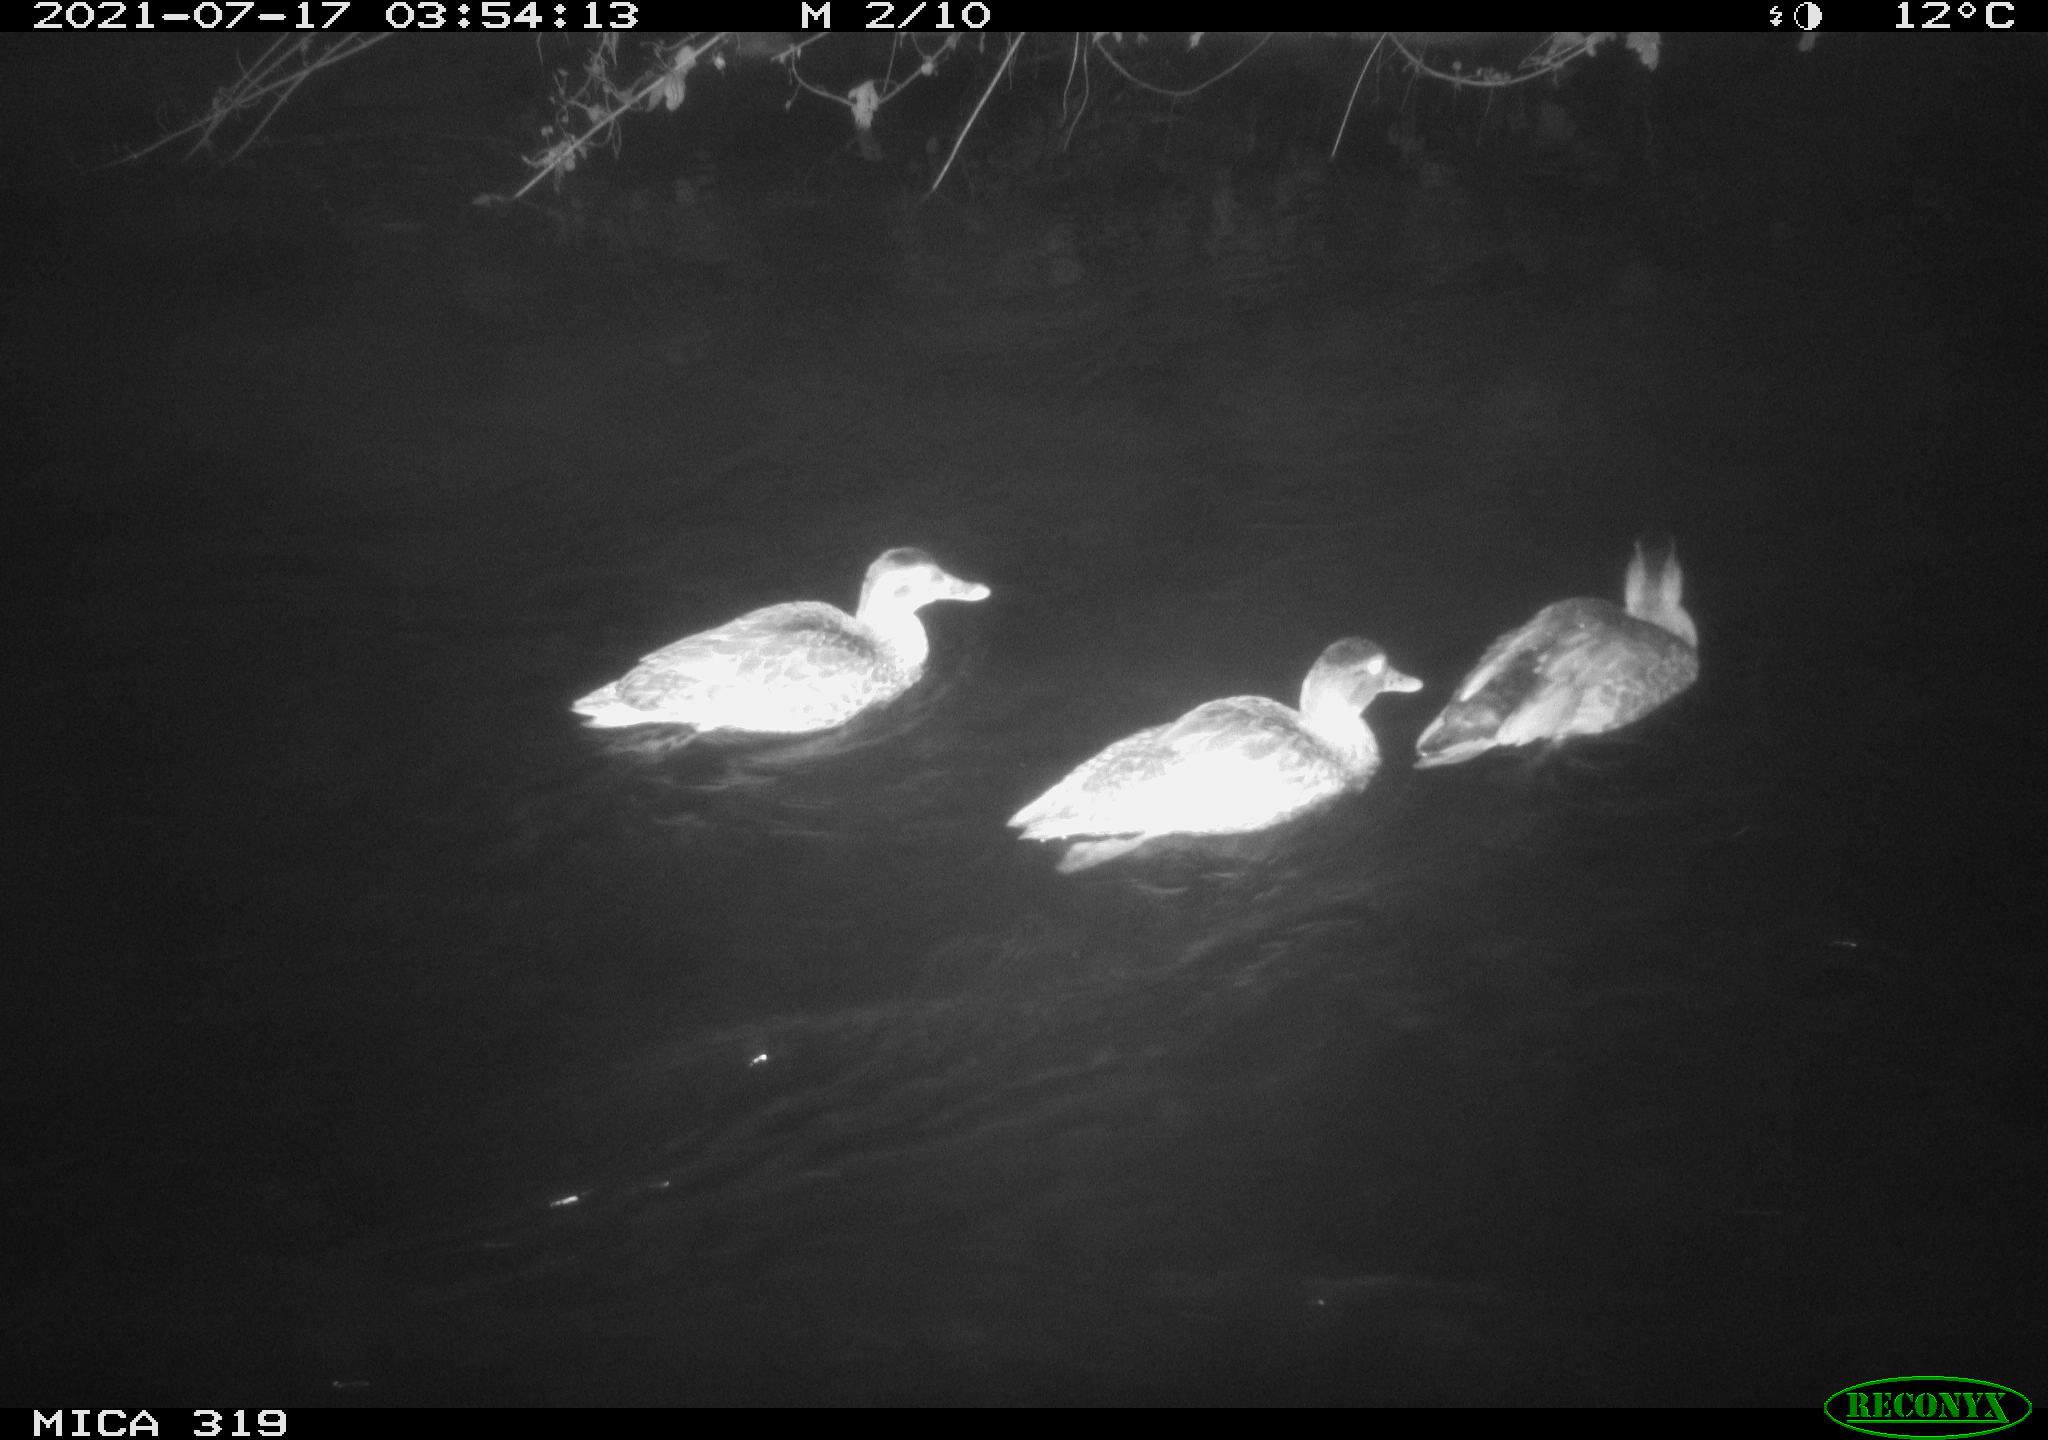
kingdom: Animalia
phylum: Chordata
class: Aves
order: Anseriformes
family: Anatidae
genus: Anas
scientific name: Anas platyrhynchos
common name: Mallard
